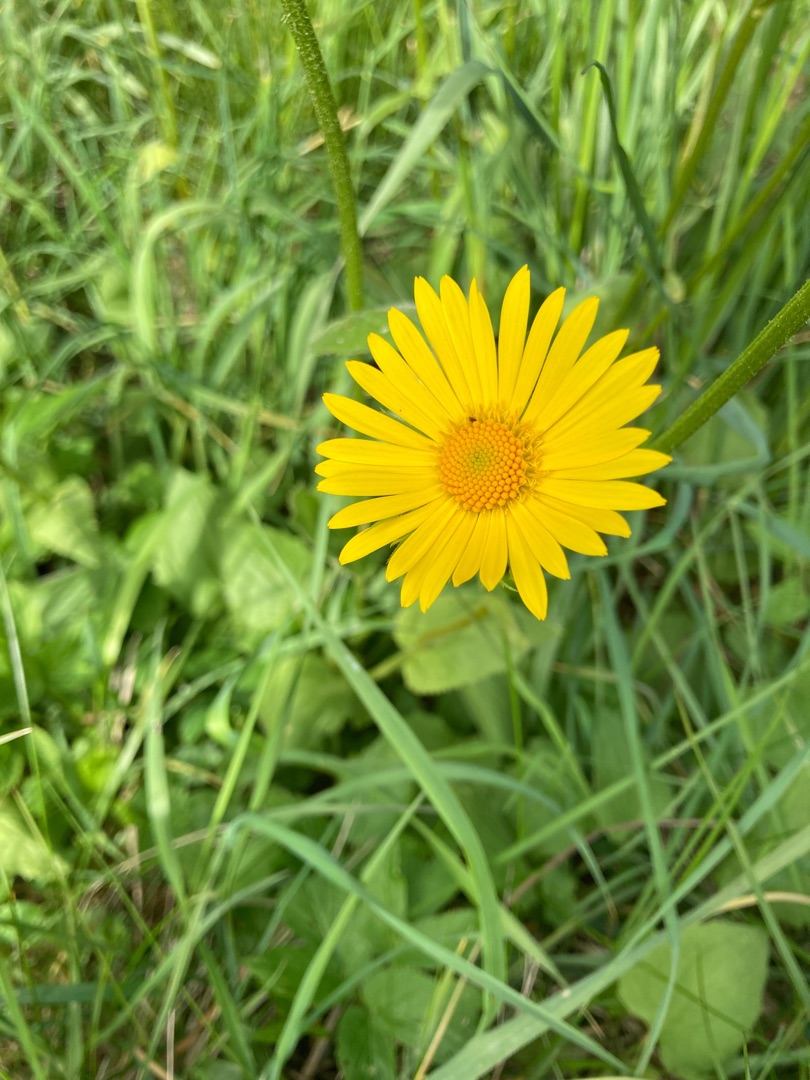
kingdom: Plantae
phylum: Tracheophyta
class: Magnoliopsida
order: Asterales
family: Asteraceae
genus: Doronicum
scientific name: Doronicum
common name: Gemserodslægten
